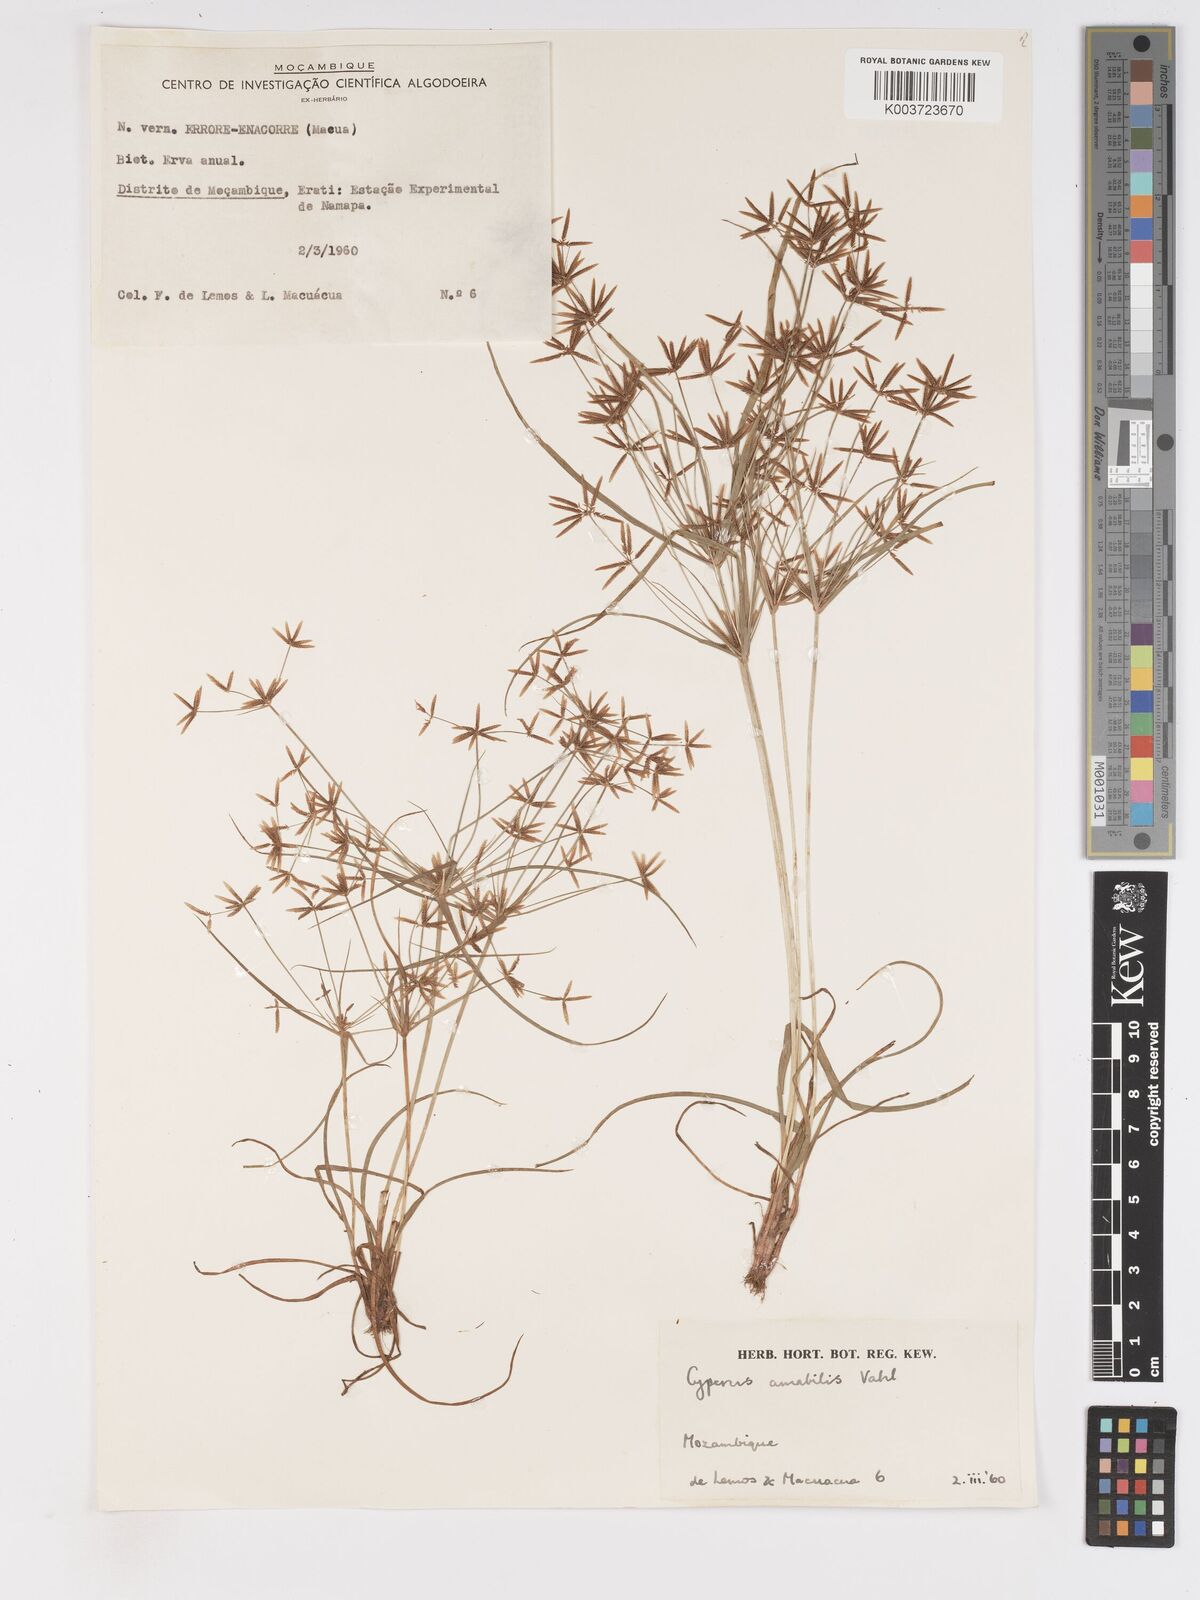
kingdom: Plantae
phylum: Tracheophyta
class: Liliopsida
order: Poales
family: Cyperaceae
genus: Cyperus
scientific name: Cyperus amabilis
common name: Foothill flat sedge
